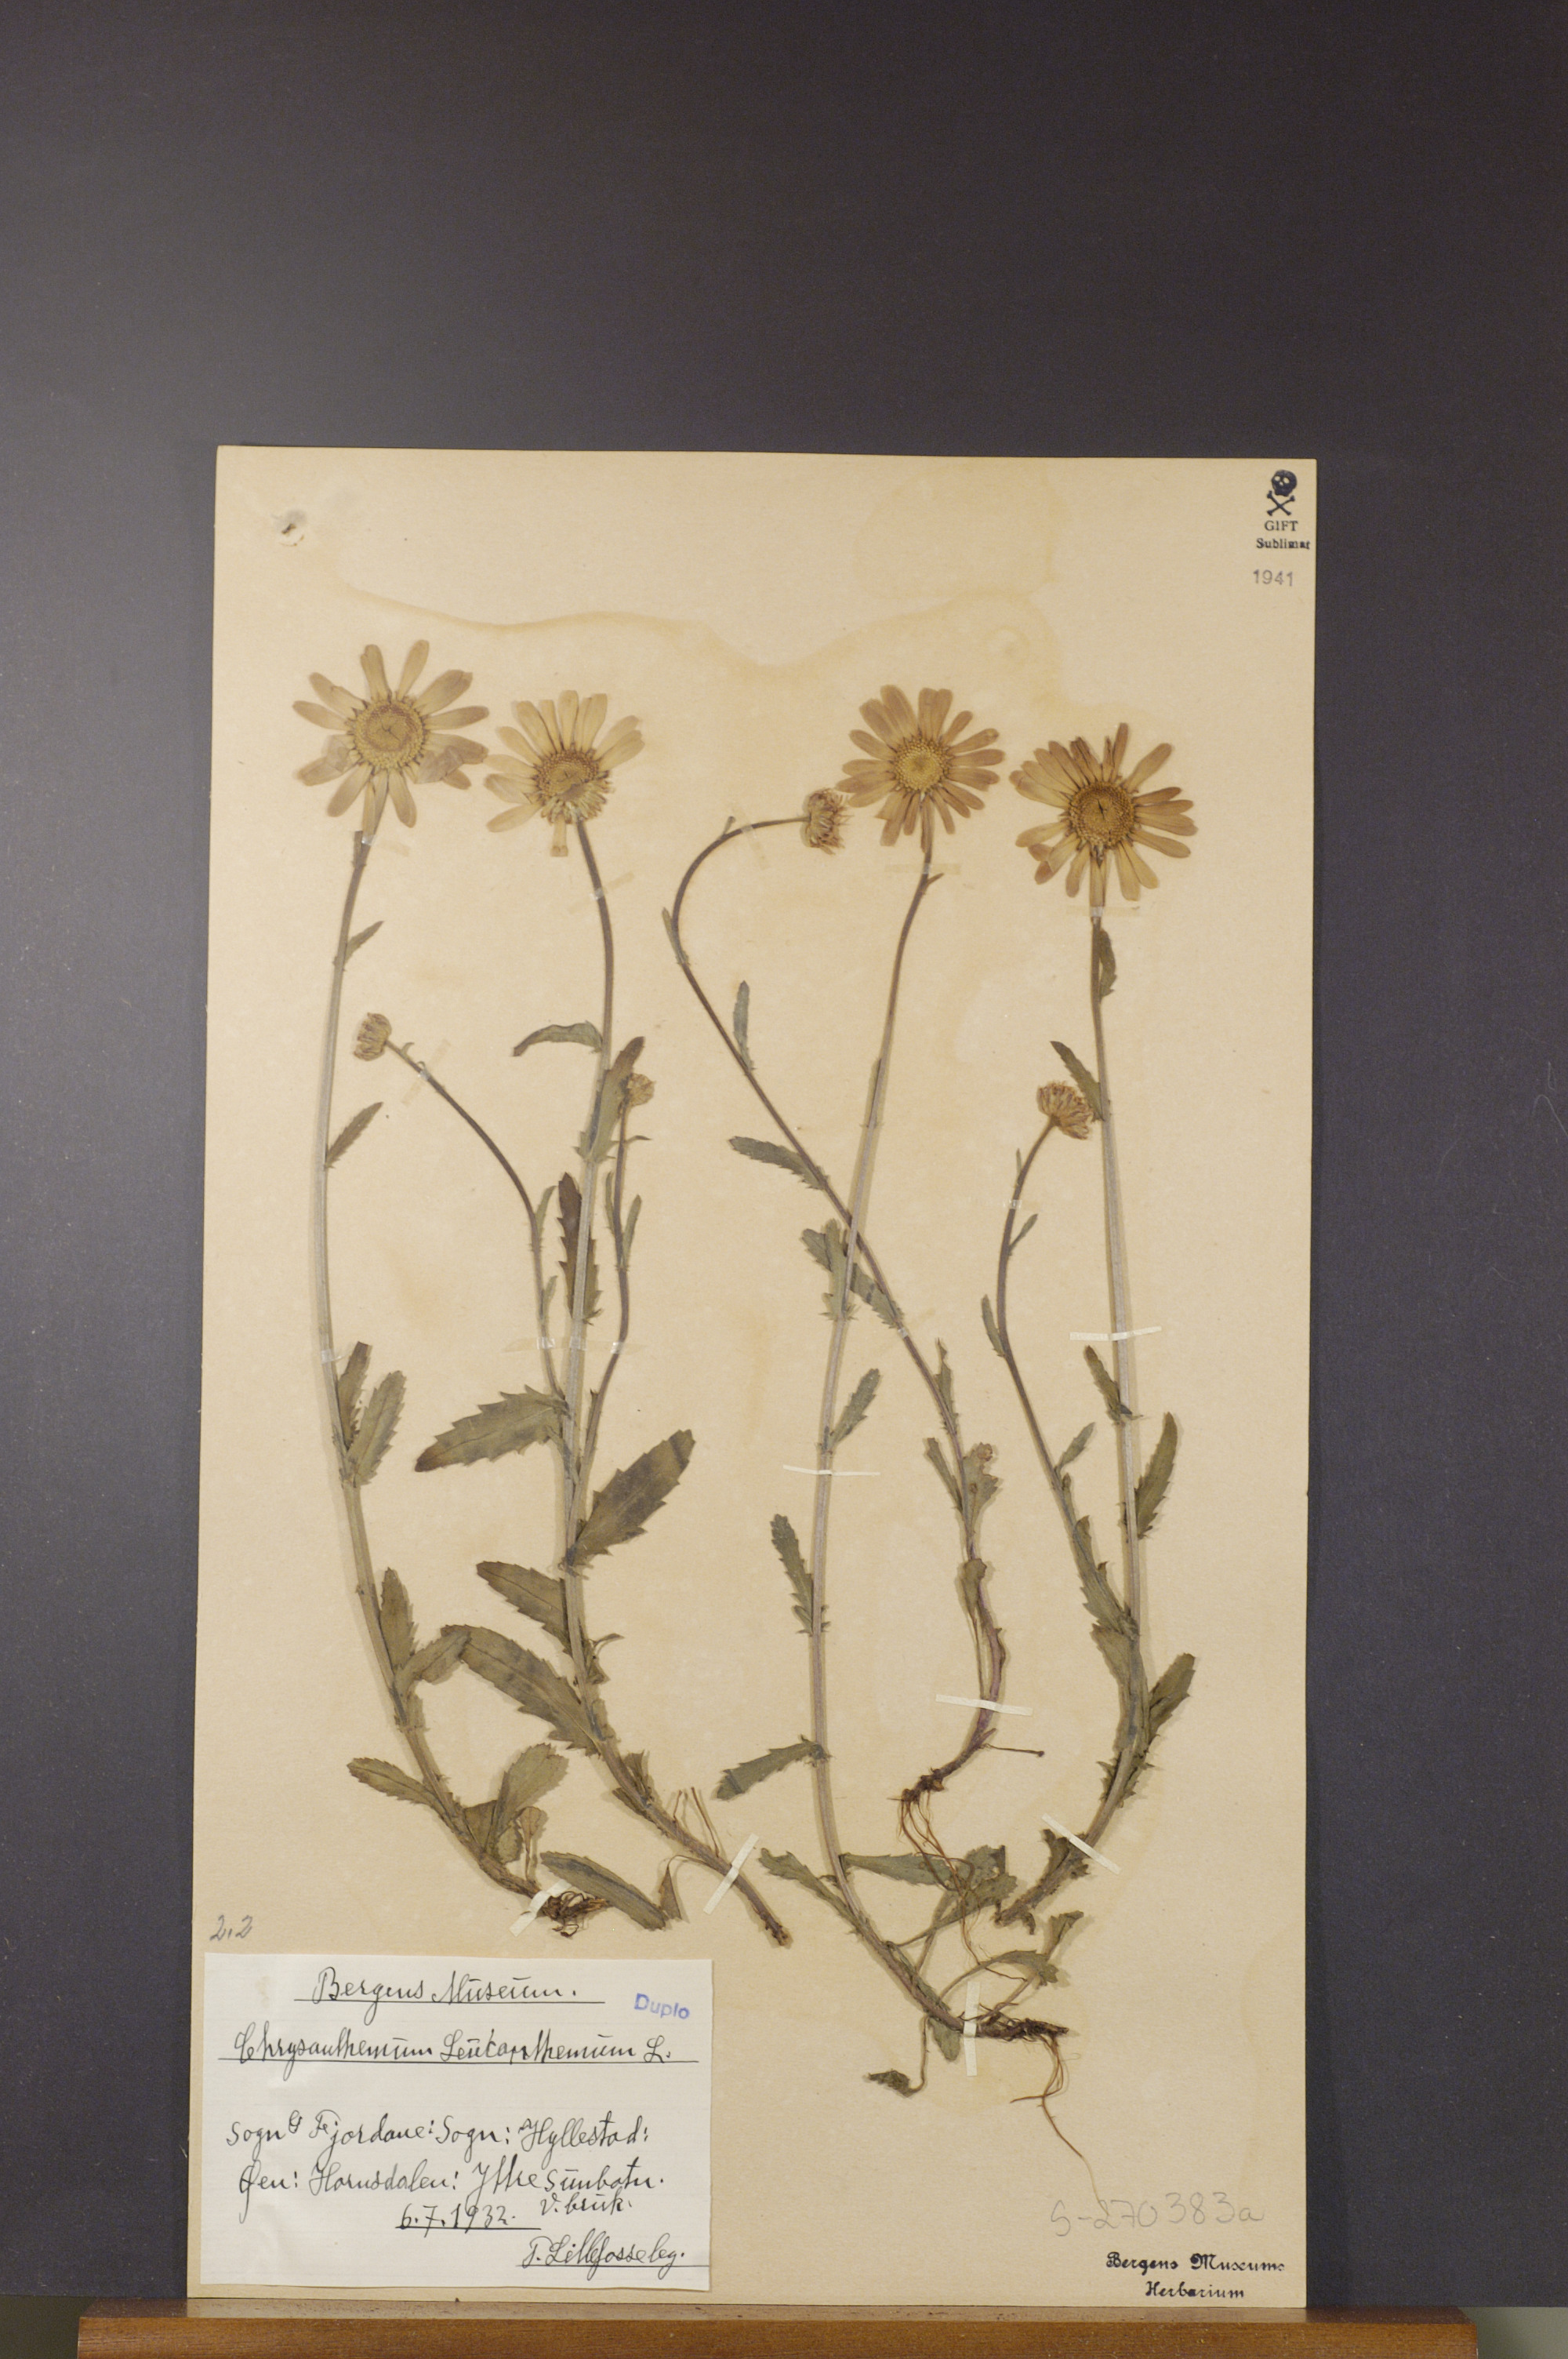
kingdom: Plantae
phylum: Tracheophyta
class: Magnoliopsida
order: Asterales
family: Asteraceae
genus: Leucanthemum
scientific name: Leucanthemum vulgare
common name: Oxeye daisy
